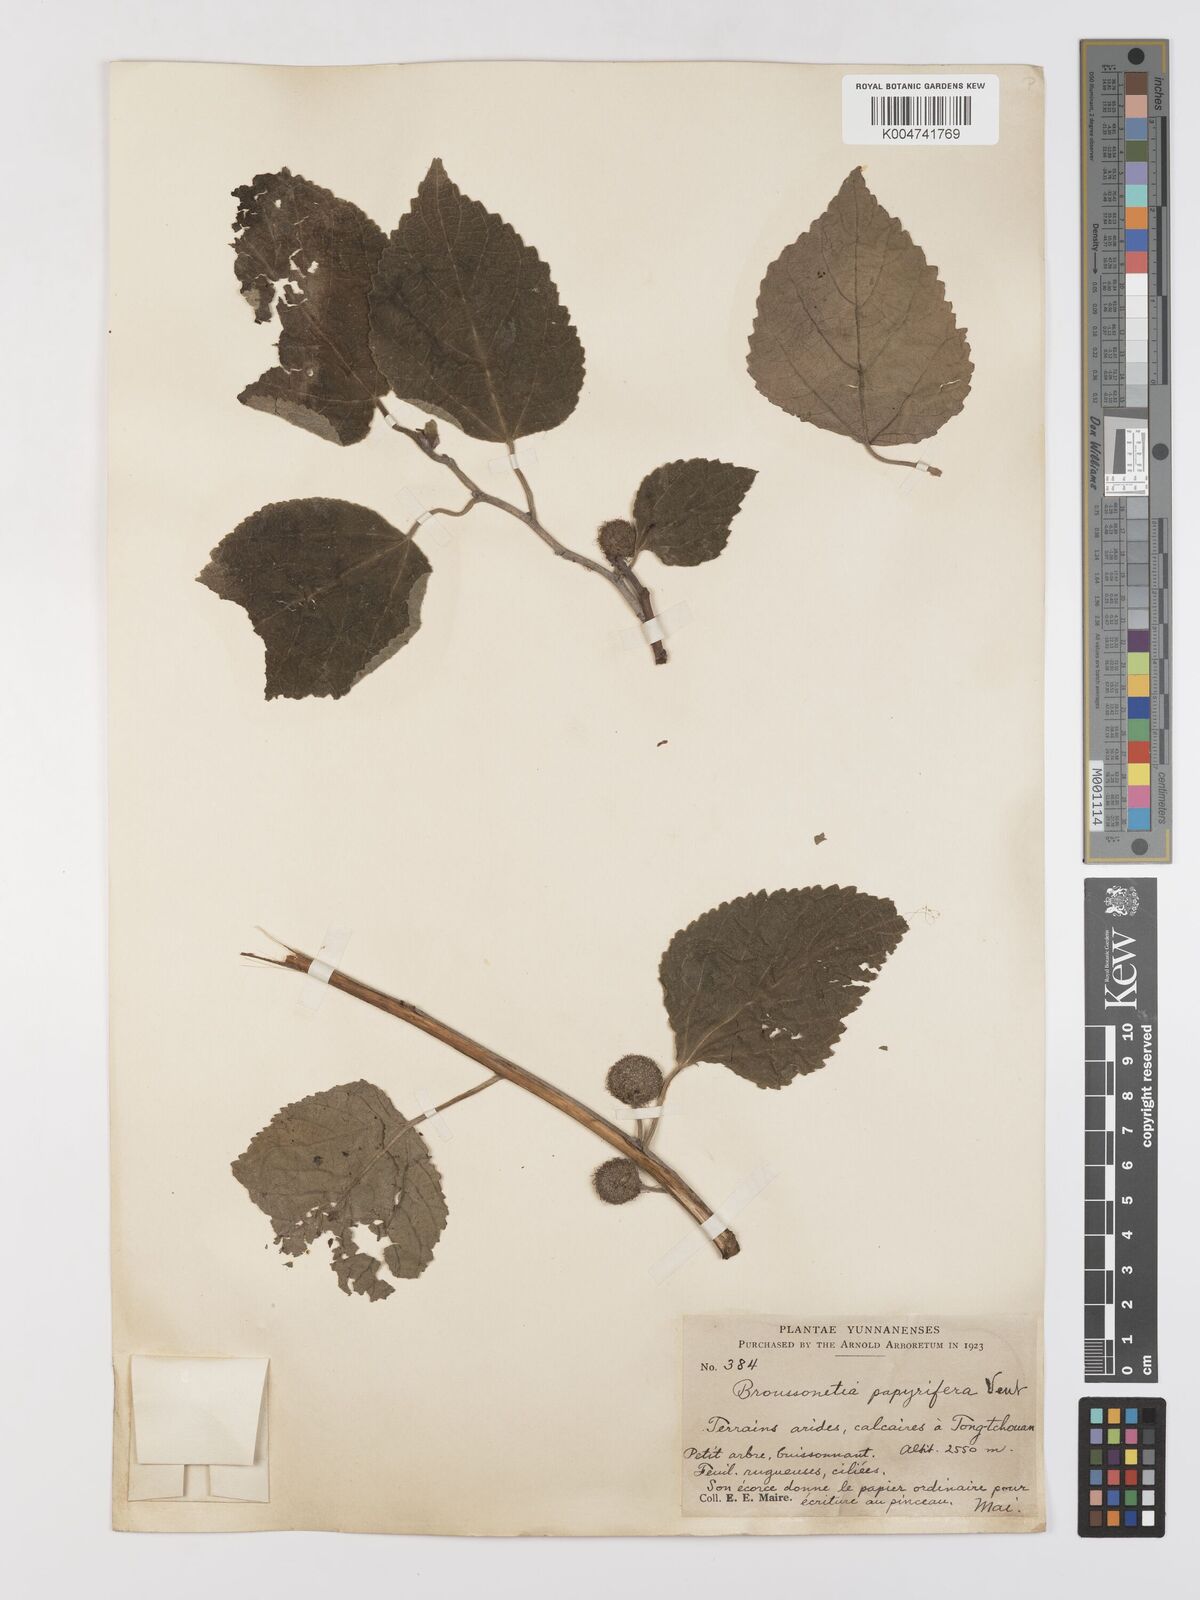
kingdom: Plantae
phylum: Tracheophyta
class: Magnoliopsida
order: Rosales
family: Moraceae
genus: Broussonetia
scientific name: Broussonetia
